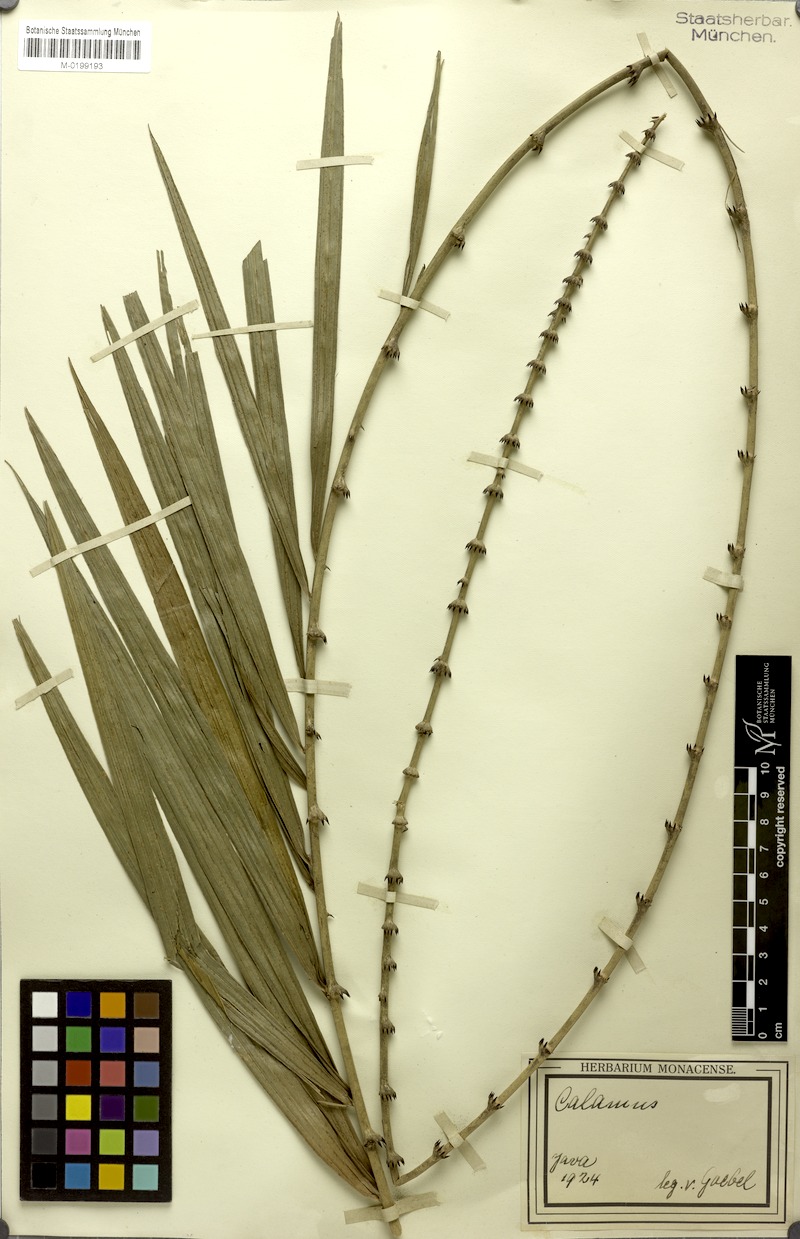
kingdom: Plantae
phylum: Tracheophyta
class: Liliopsida
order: Arecales
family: Arecaceae
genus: Calamus
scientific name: Calamus
